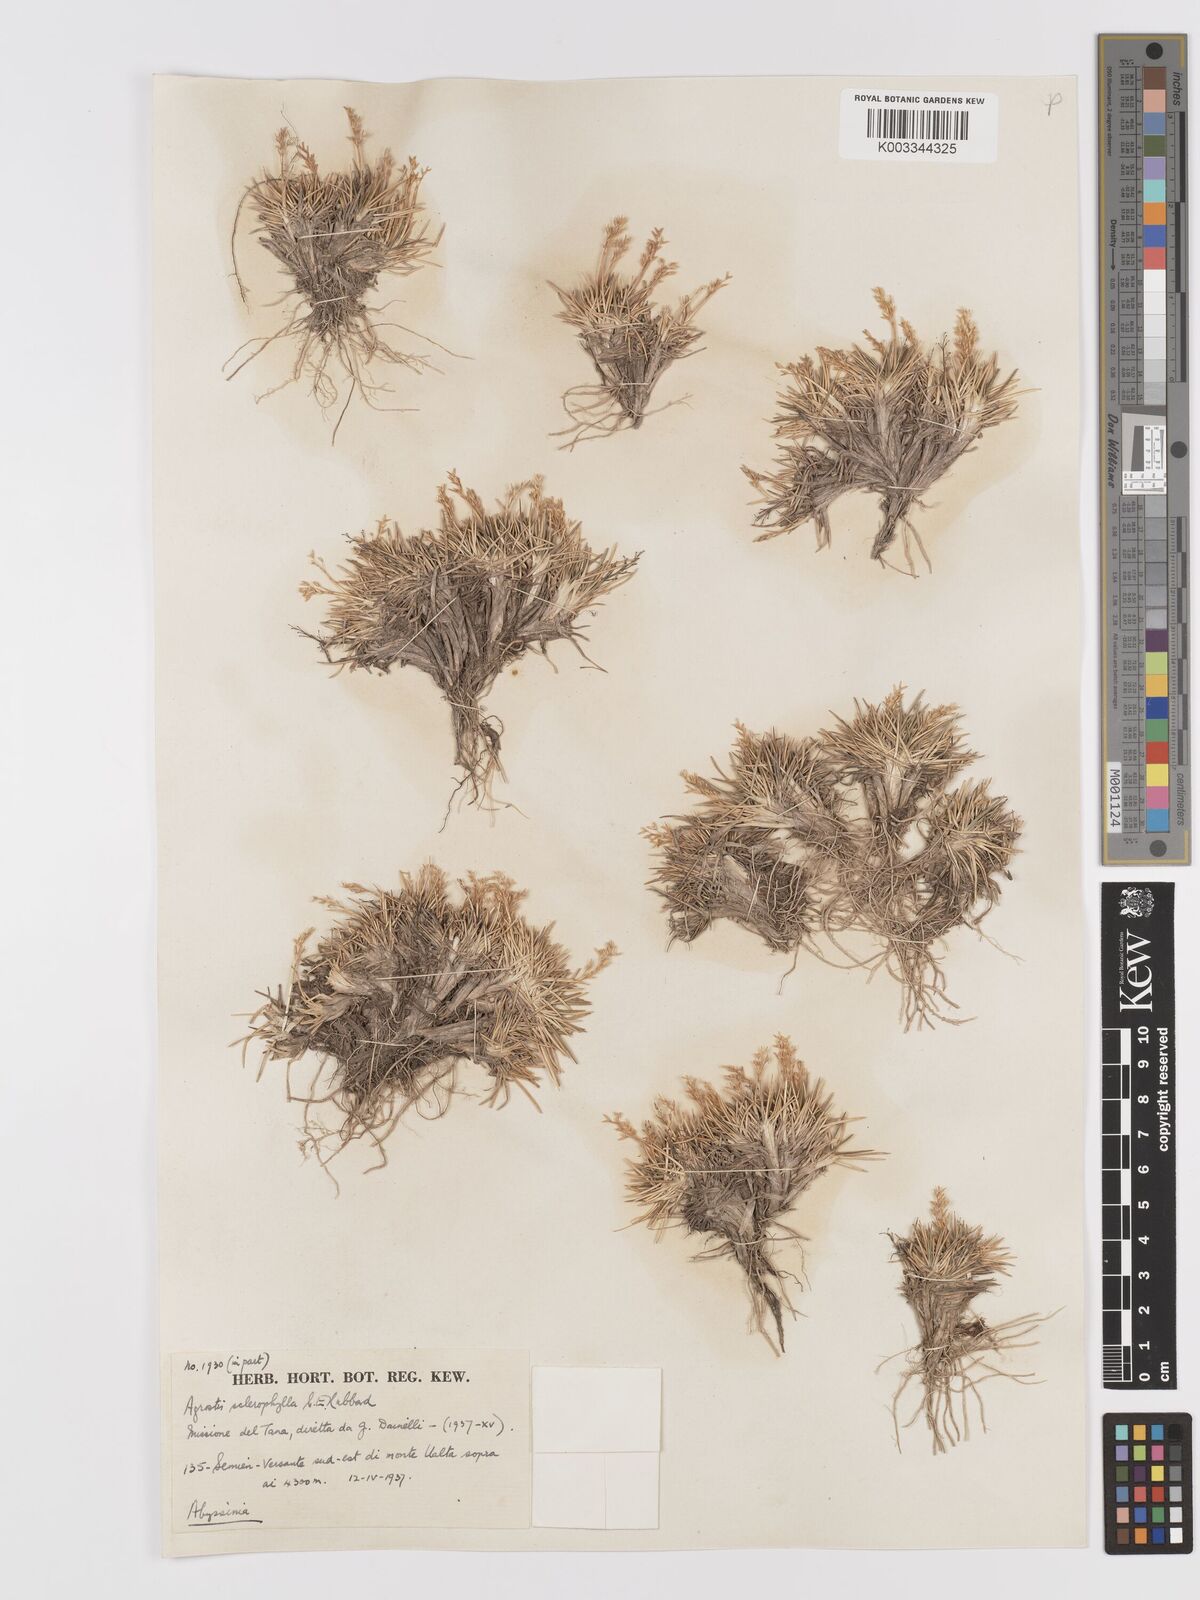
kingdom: Plantae
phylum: Tracheophyta
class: Liliopsida
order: Poales
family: Poaceae
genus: Agrostis
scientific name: Agrostis sclerophylla
